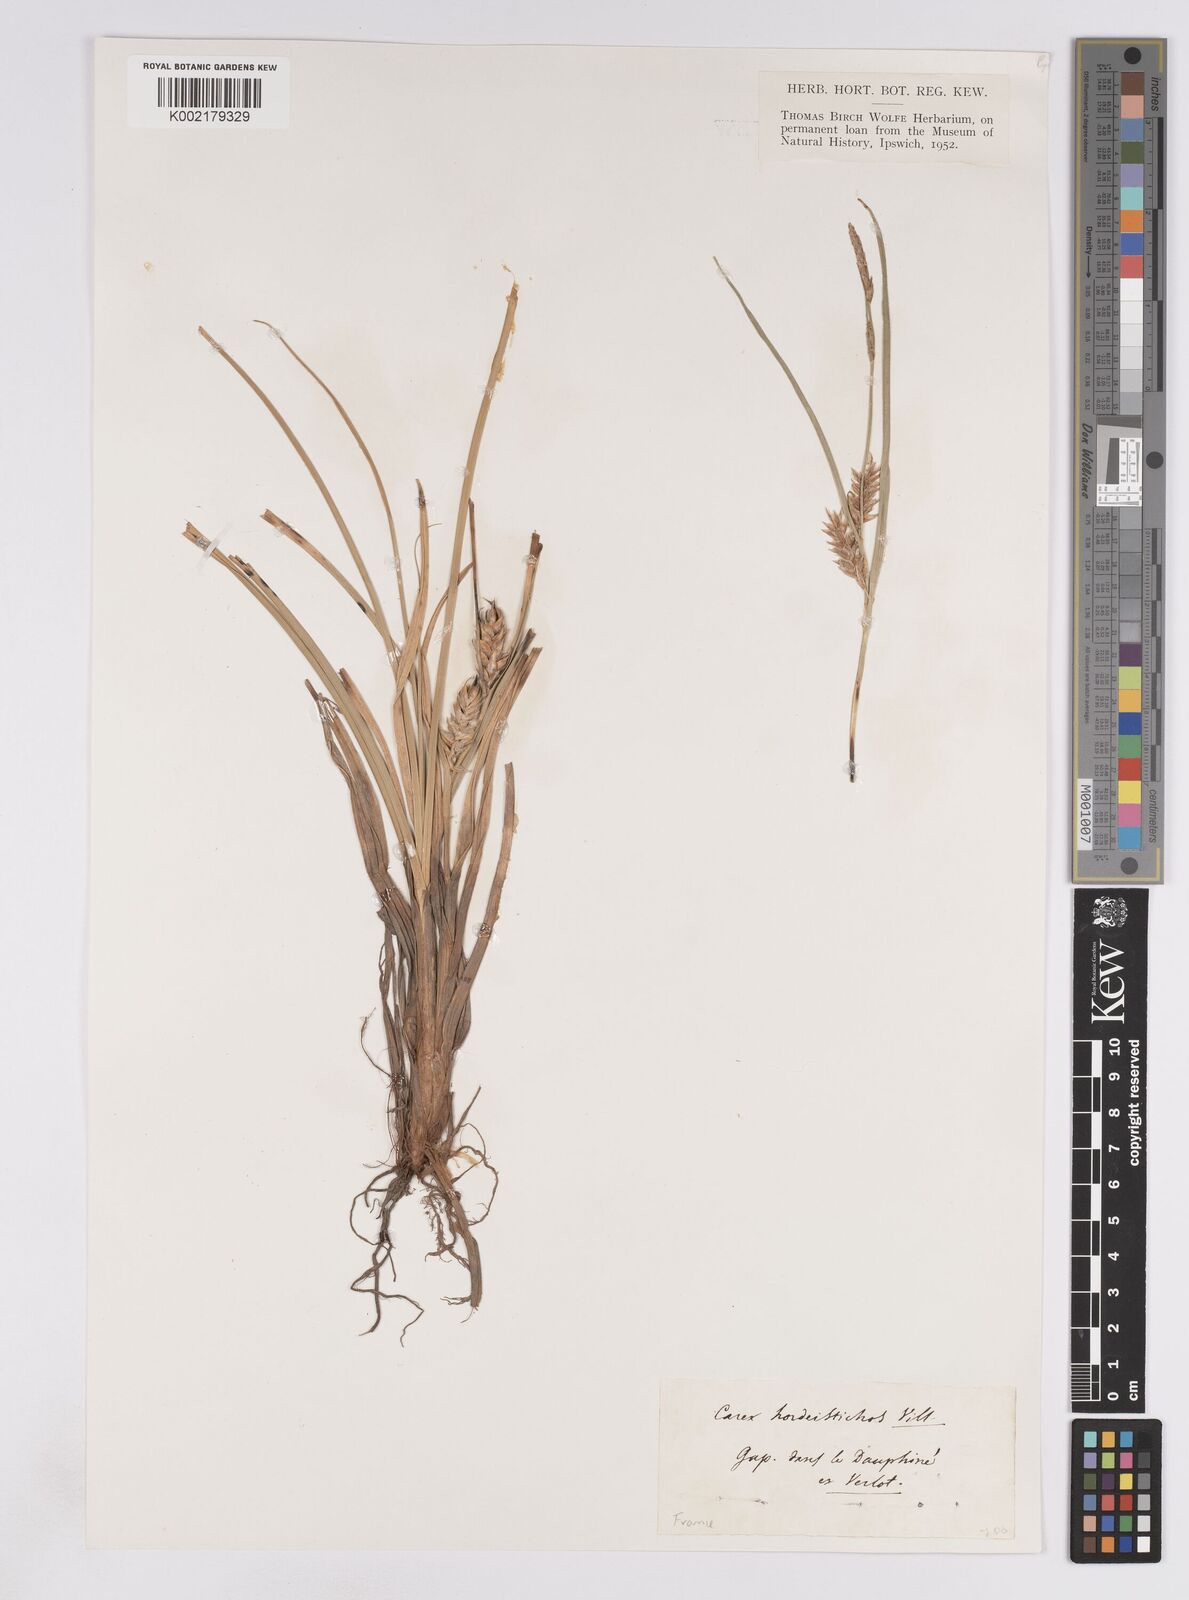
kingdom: Plantae
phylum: Tracheophyta
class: Liliopsida
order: Poales
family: Cyperaceae
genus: Carex
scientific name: Carex hordeistichos
